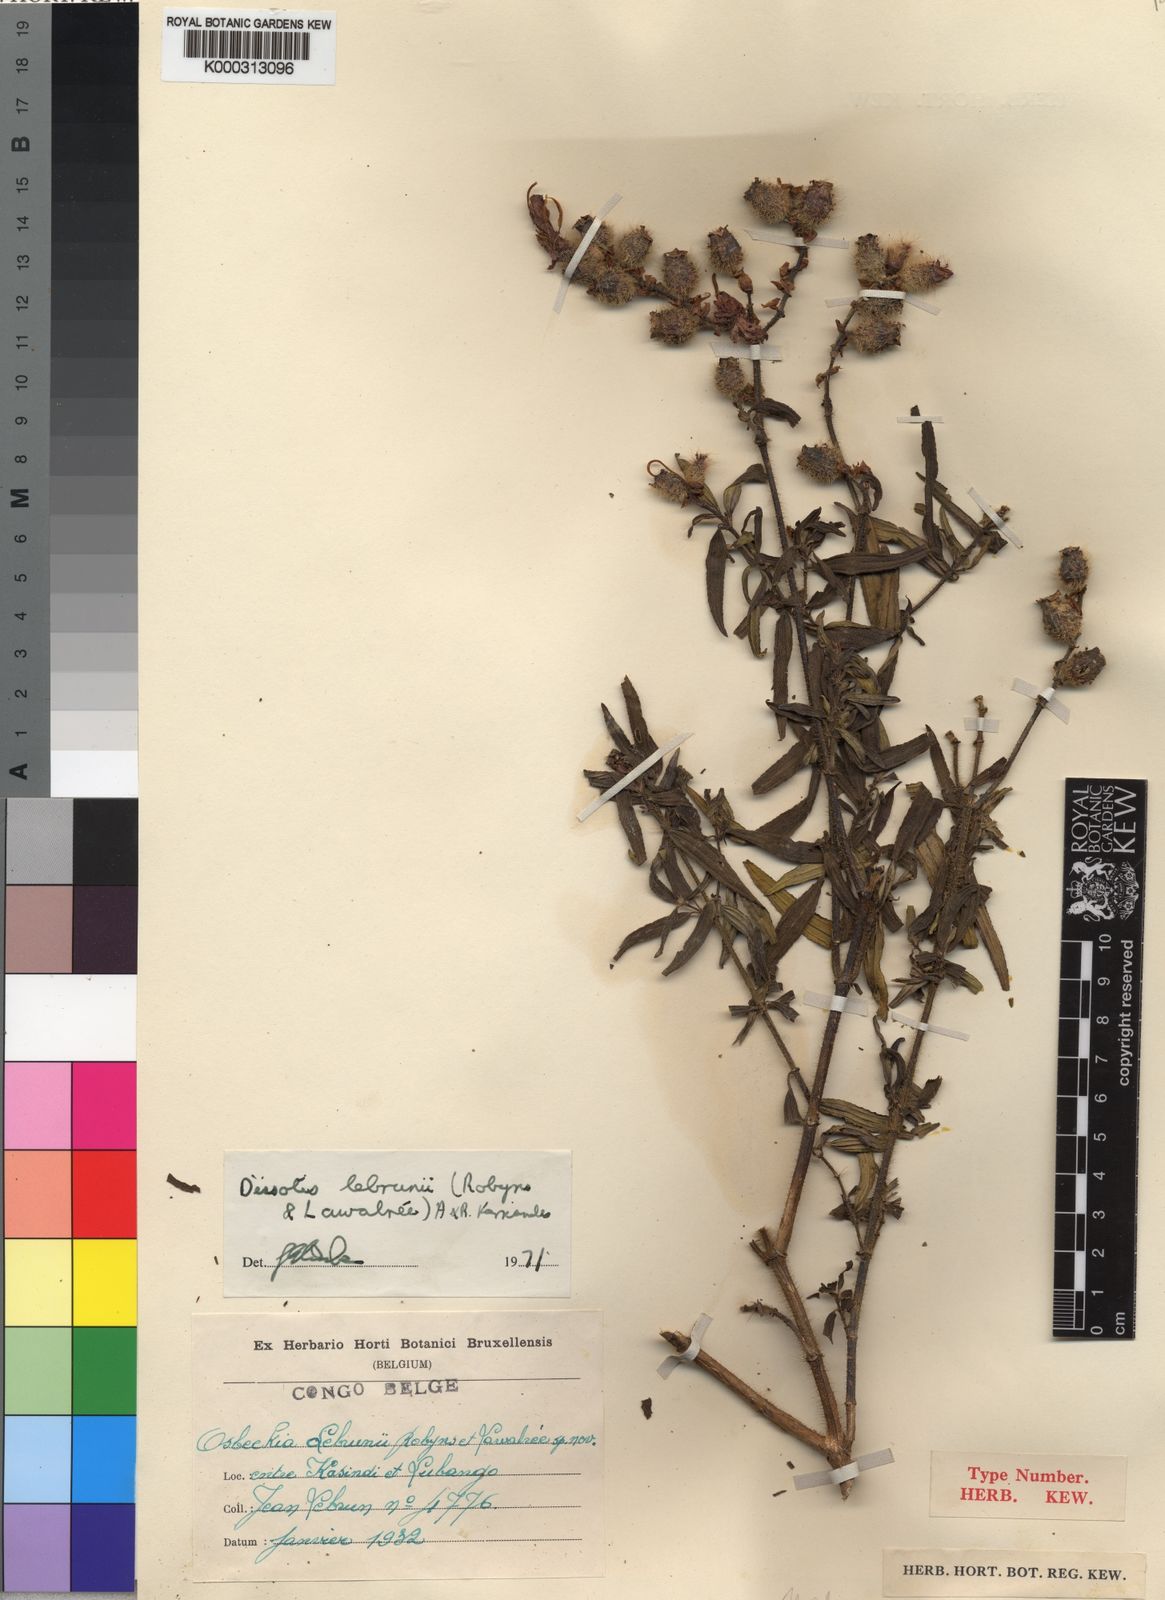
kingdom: Plantae
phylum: Tracheophyta
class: Magnoliopsida
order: Myrtales
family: Melastomataceae
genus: Dissotis
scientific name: Dissotis
